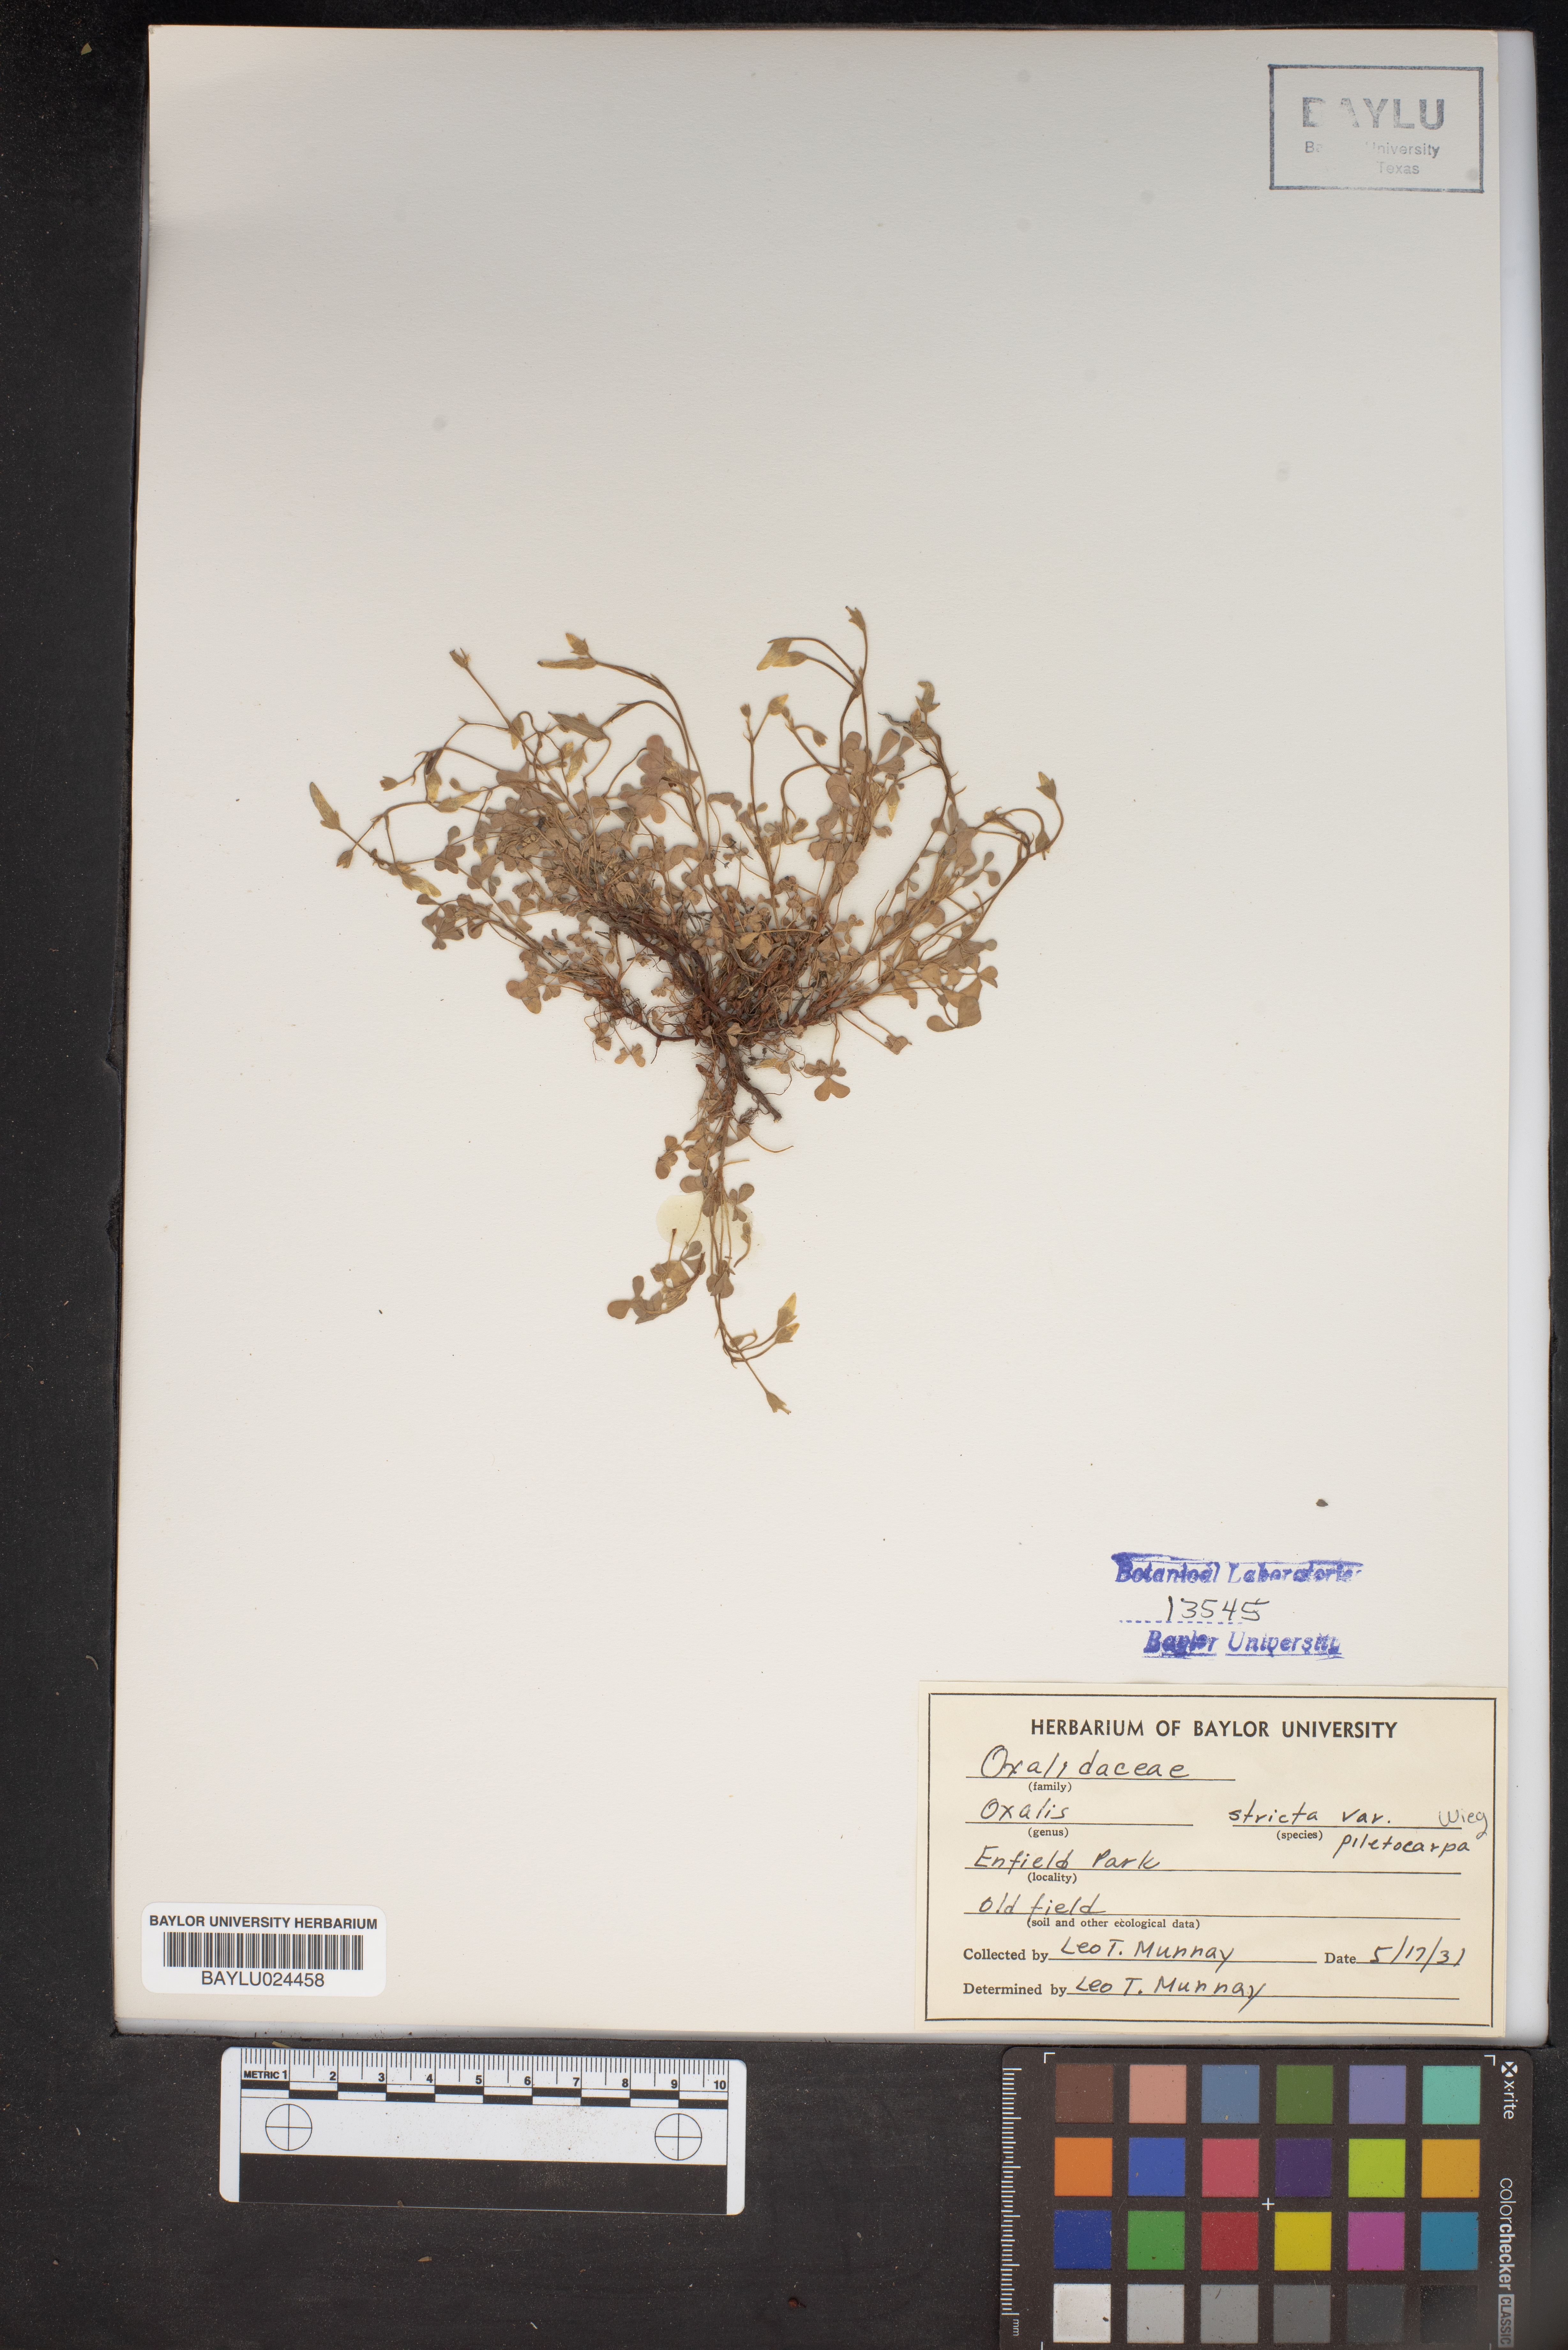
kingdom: Plantae
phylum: Tracheophyta
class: Magnoliopsida
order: Oxalidales
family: Oxalidaceae
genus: Oxalis
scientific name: Oxalis stricta
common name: Upright yellow-sorrel
